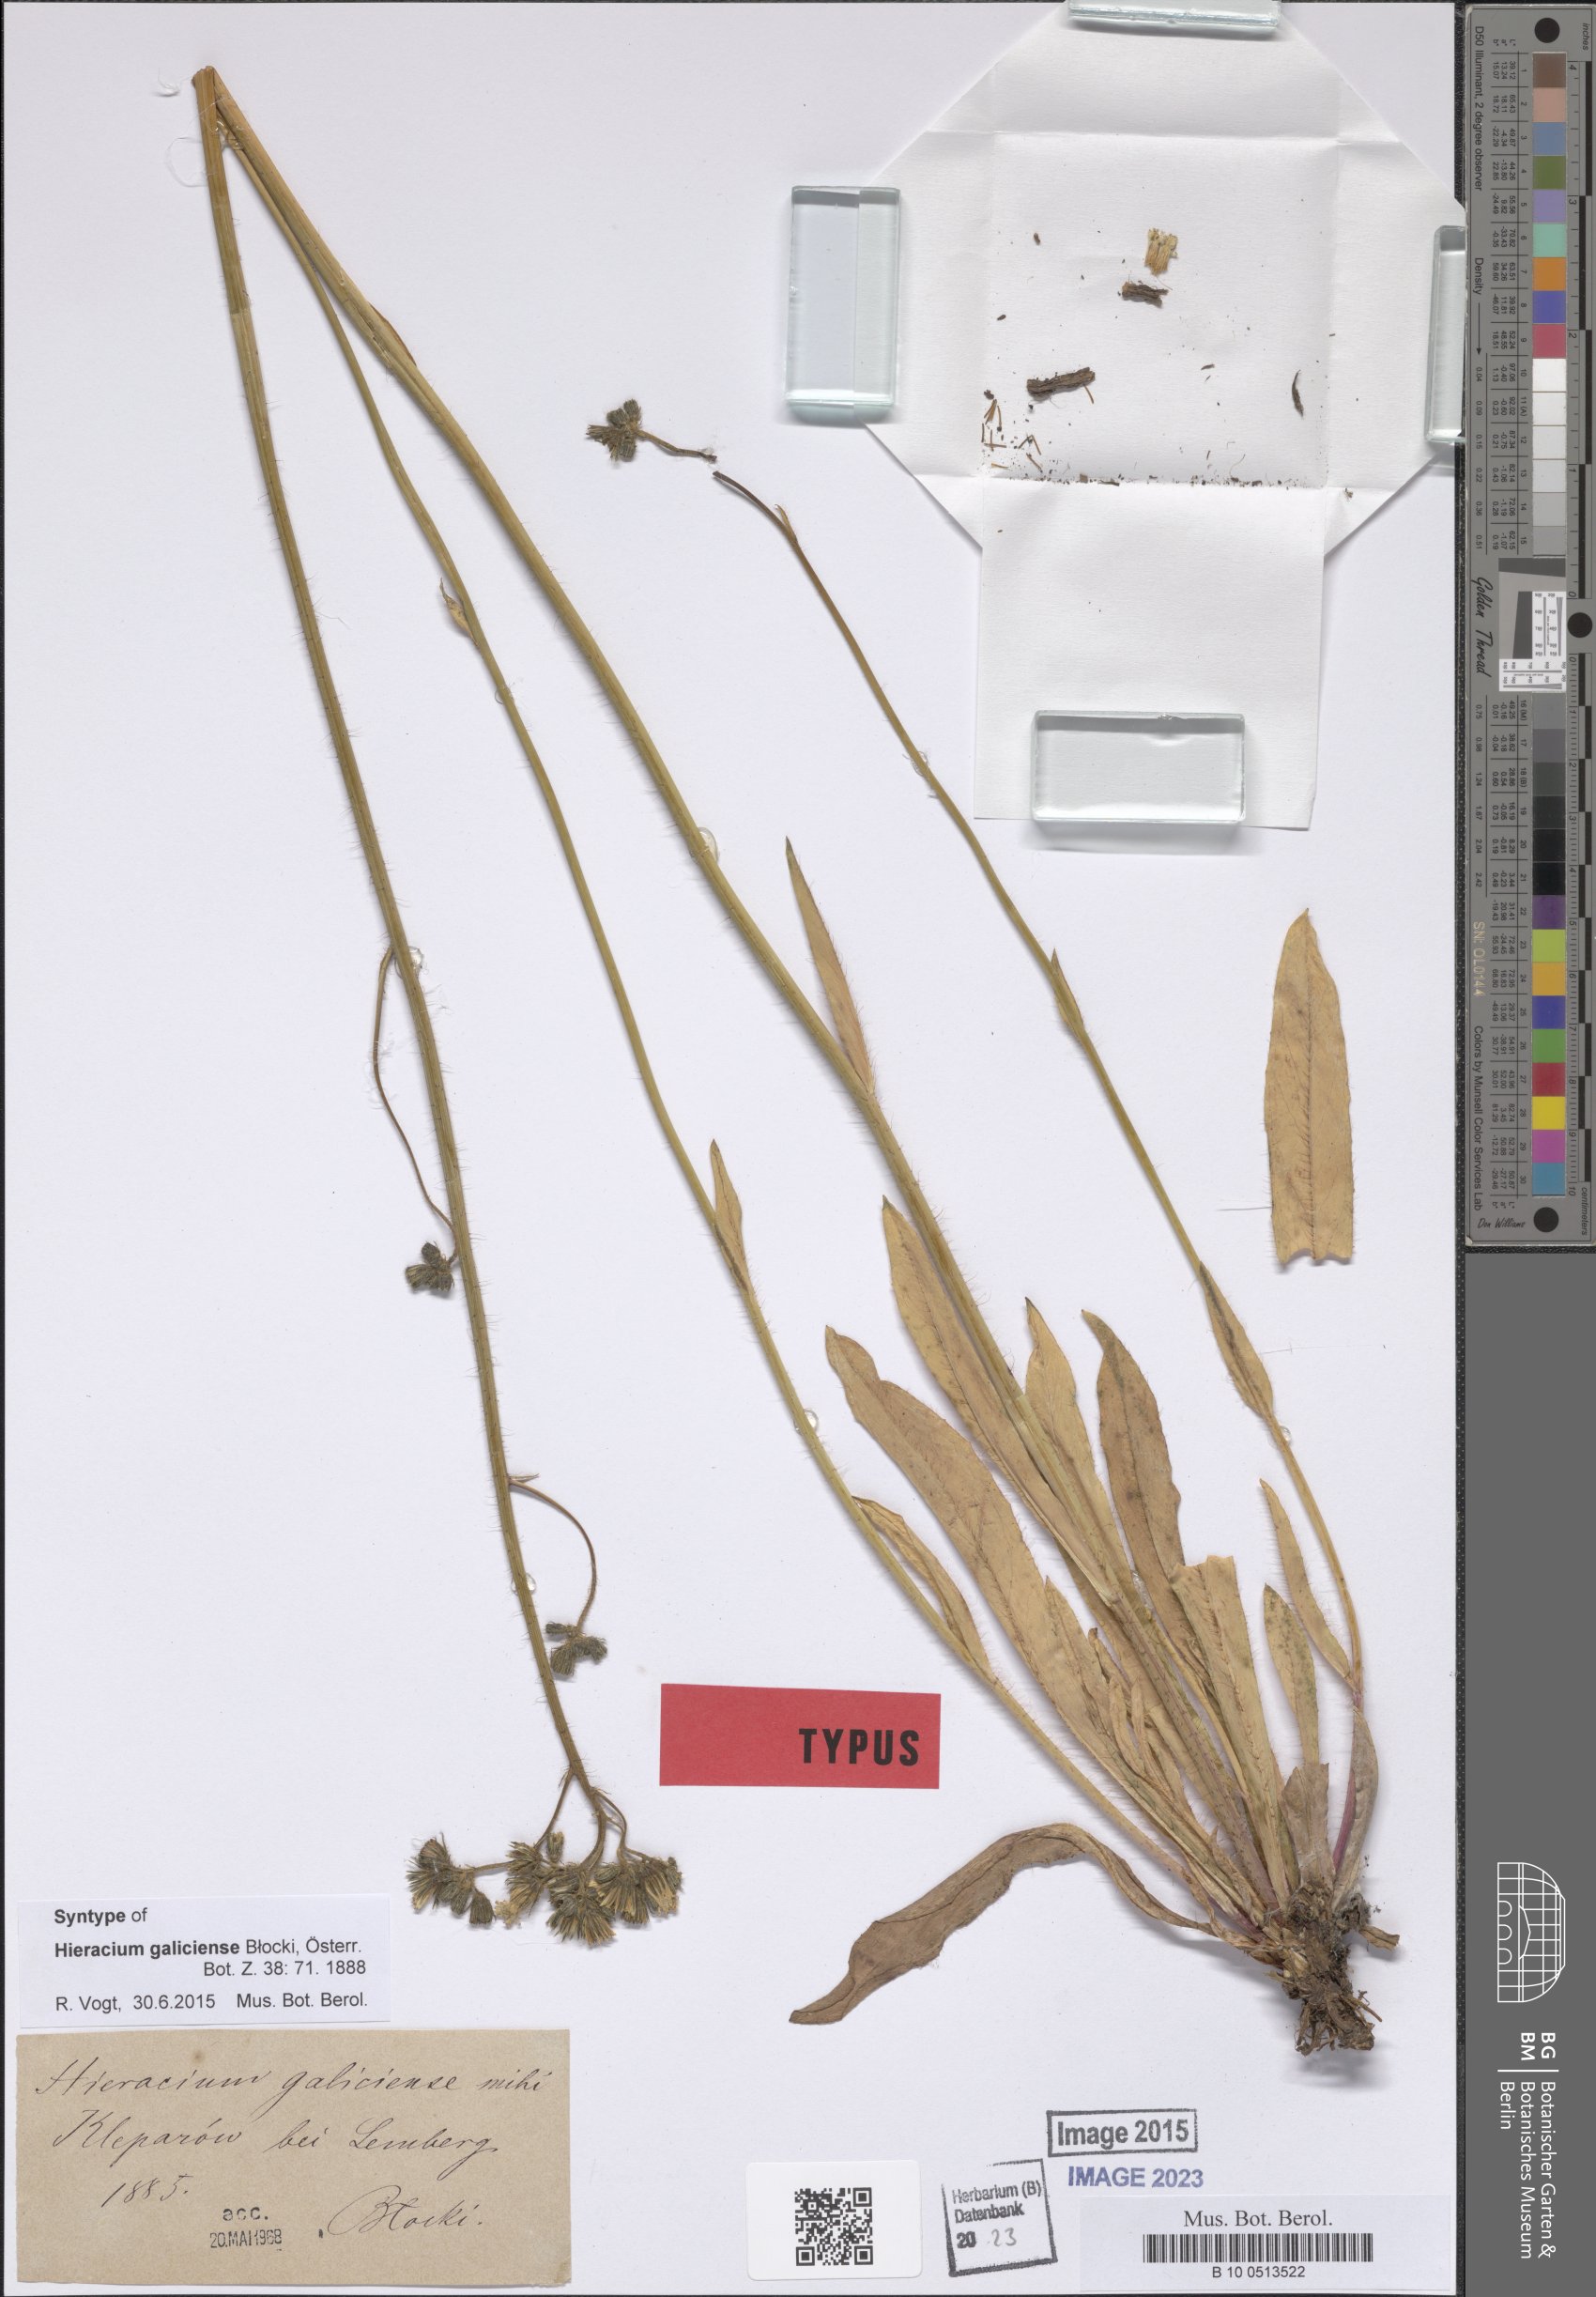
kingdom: Plantae
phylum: Tracheophyta
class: Magnoliopsida
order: Asterales
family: Asteraceae
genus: Pilosella
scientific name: Pilosella piloselloides
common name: Glaucous king-devil
